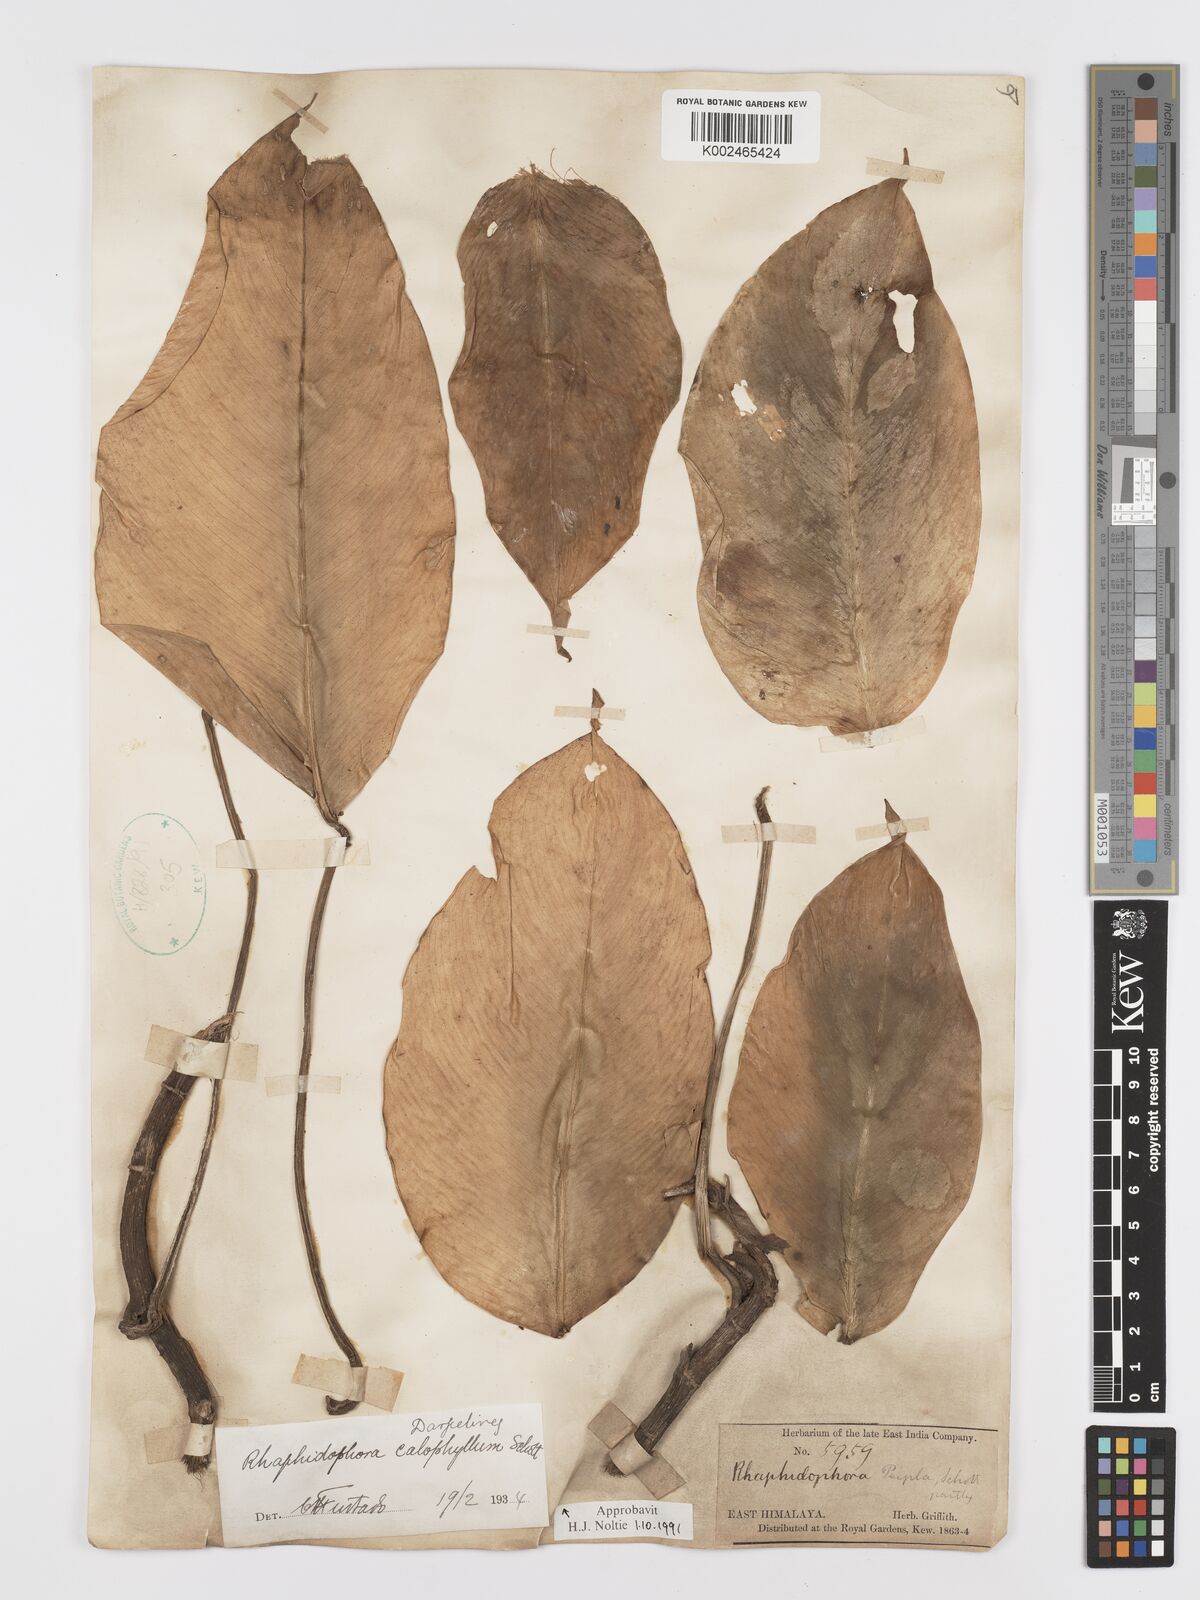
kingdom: Plantae
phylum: Tracheophyta
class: Liliopsida
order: Alismatales
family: Araceae
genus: Rhaphidophora
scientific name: Rhaphidophora calophylla
